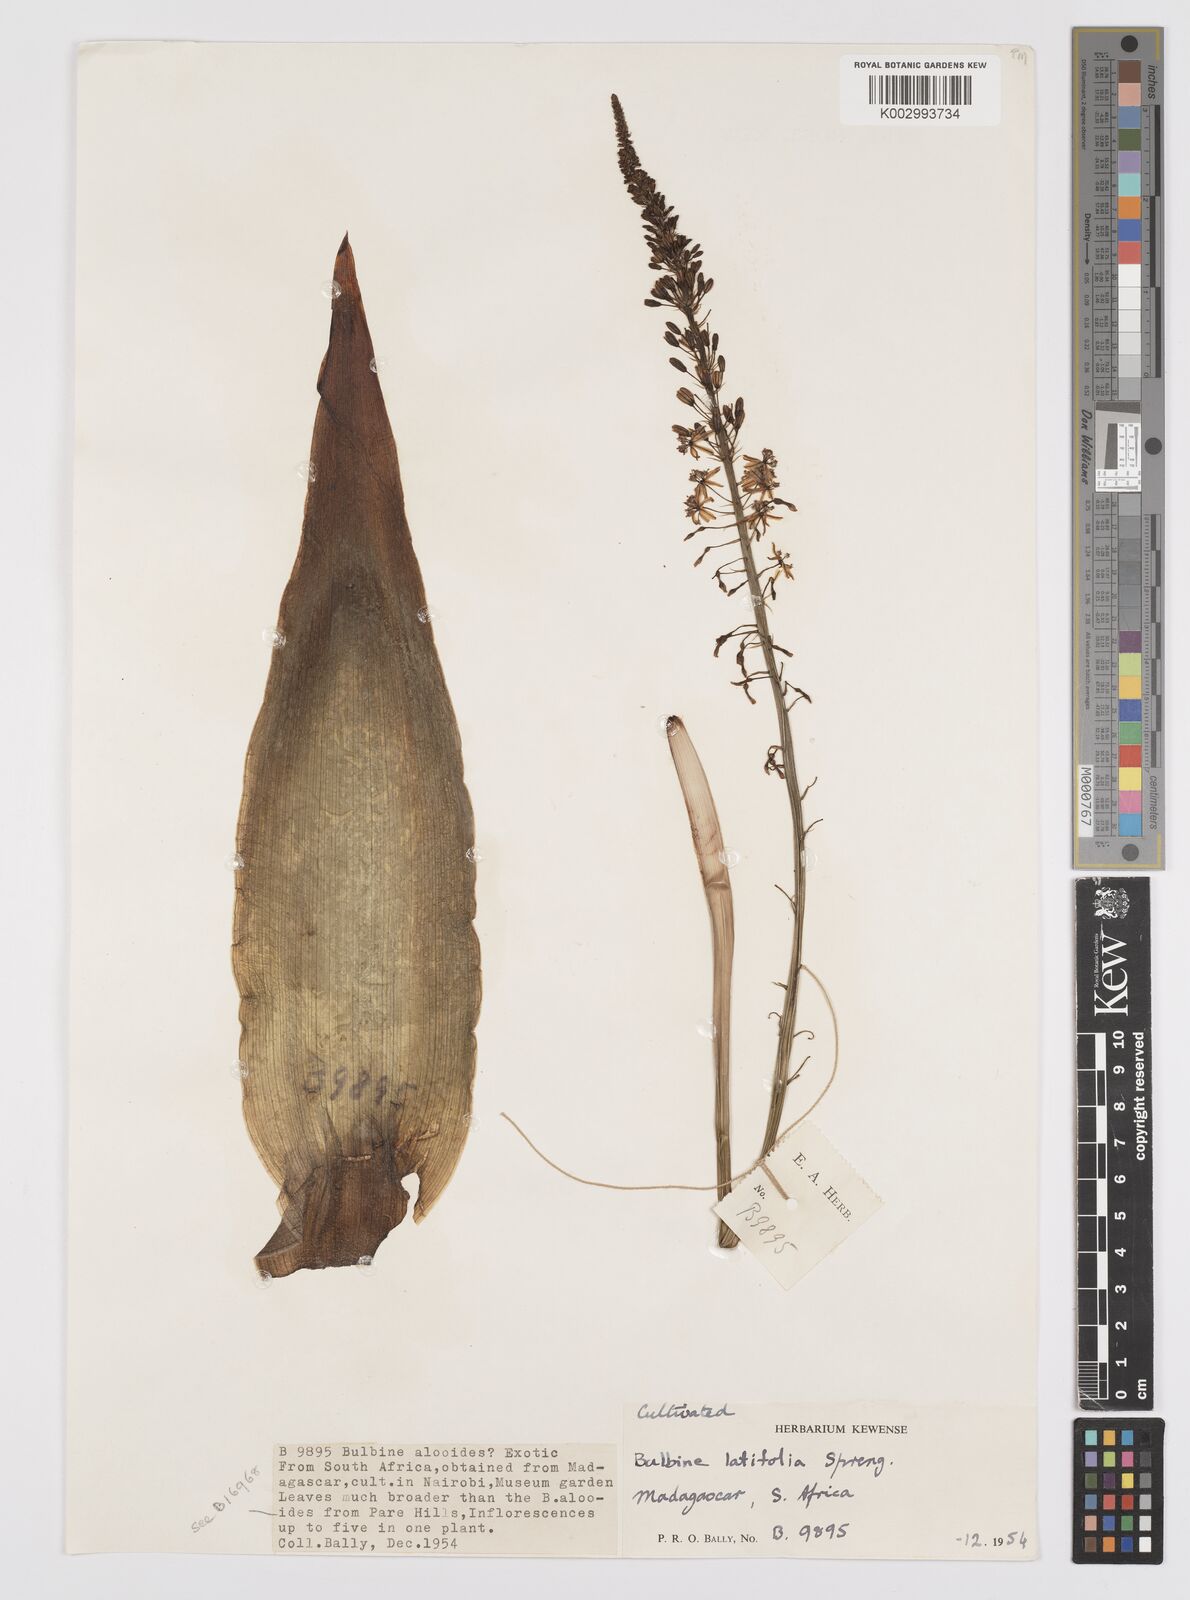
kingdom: Plantae
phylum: Tracheophyta
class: Liliopsida
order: Asparagales
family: Asphodelaceae
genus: Bulbine
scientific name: Bulbine latifolia
